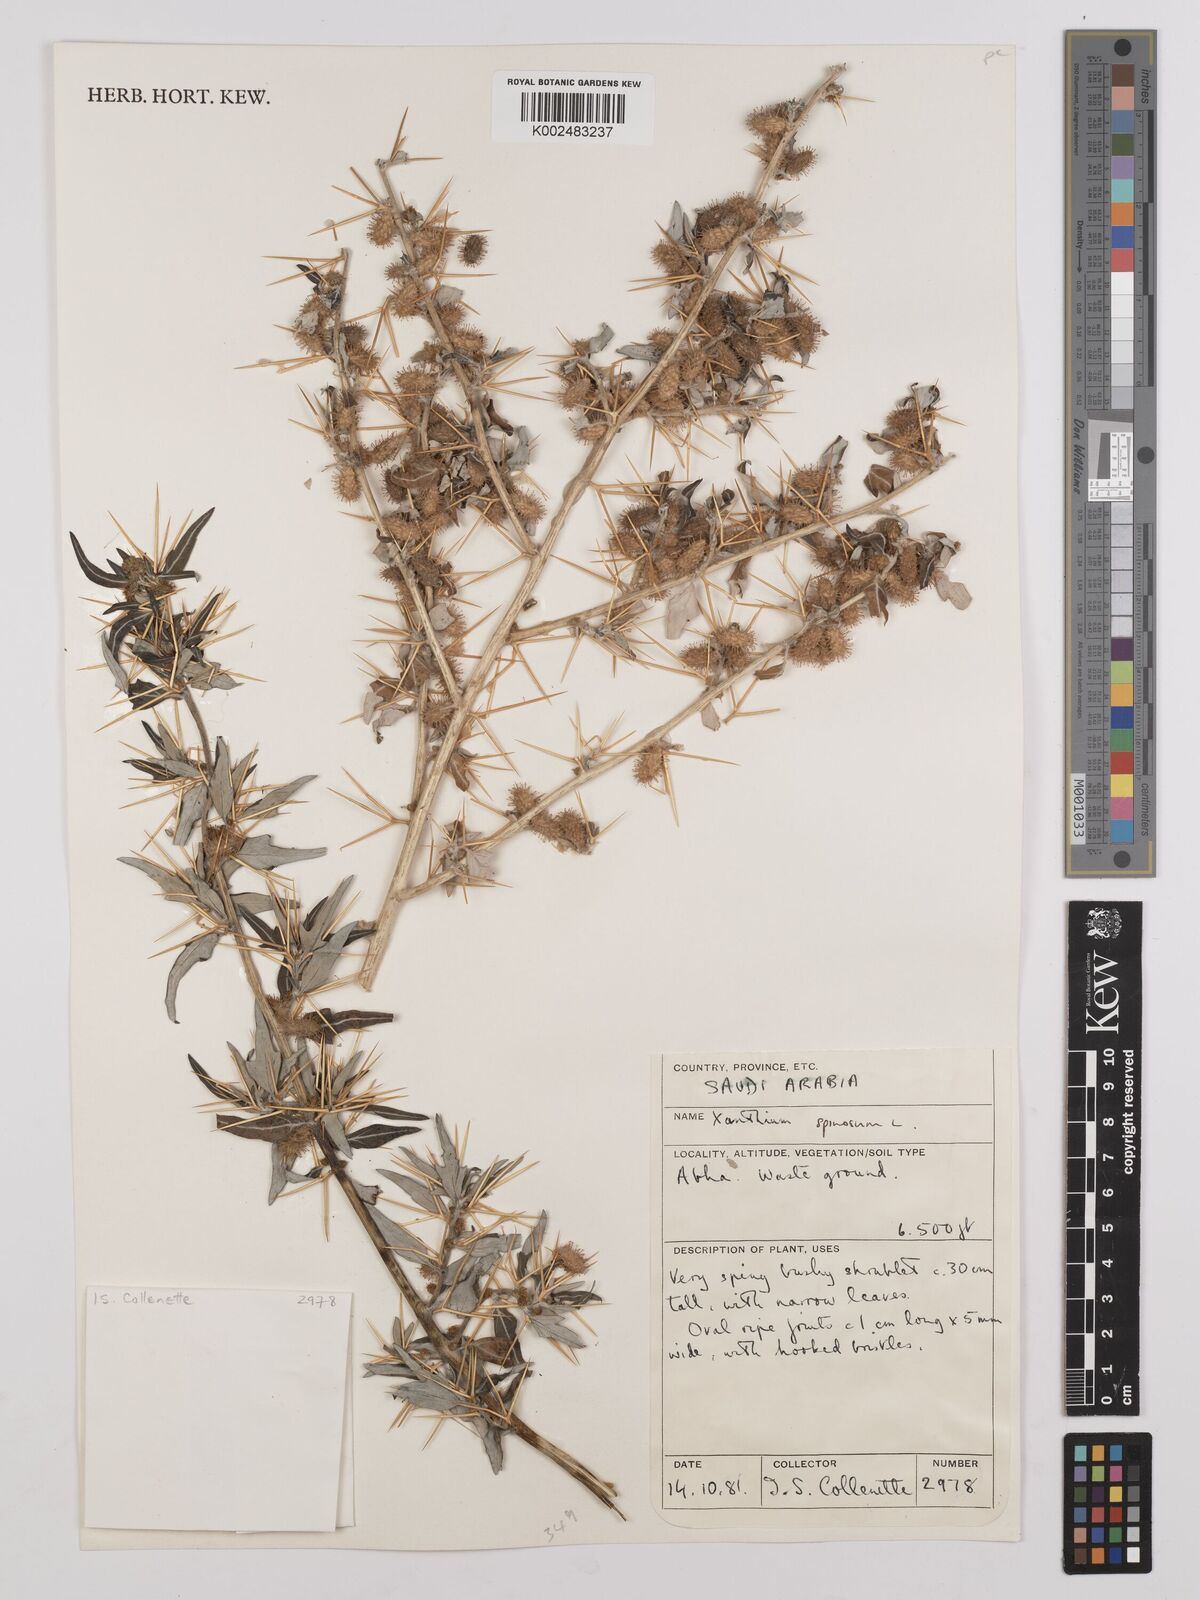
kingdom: Plantae
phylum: Tracheophyta
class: Magnoliopsida
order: Asterales
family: Asteraceae
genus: Xanthium
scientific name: Xanthium spinosum
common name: Spiny cocklebur
